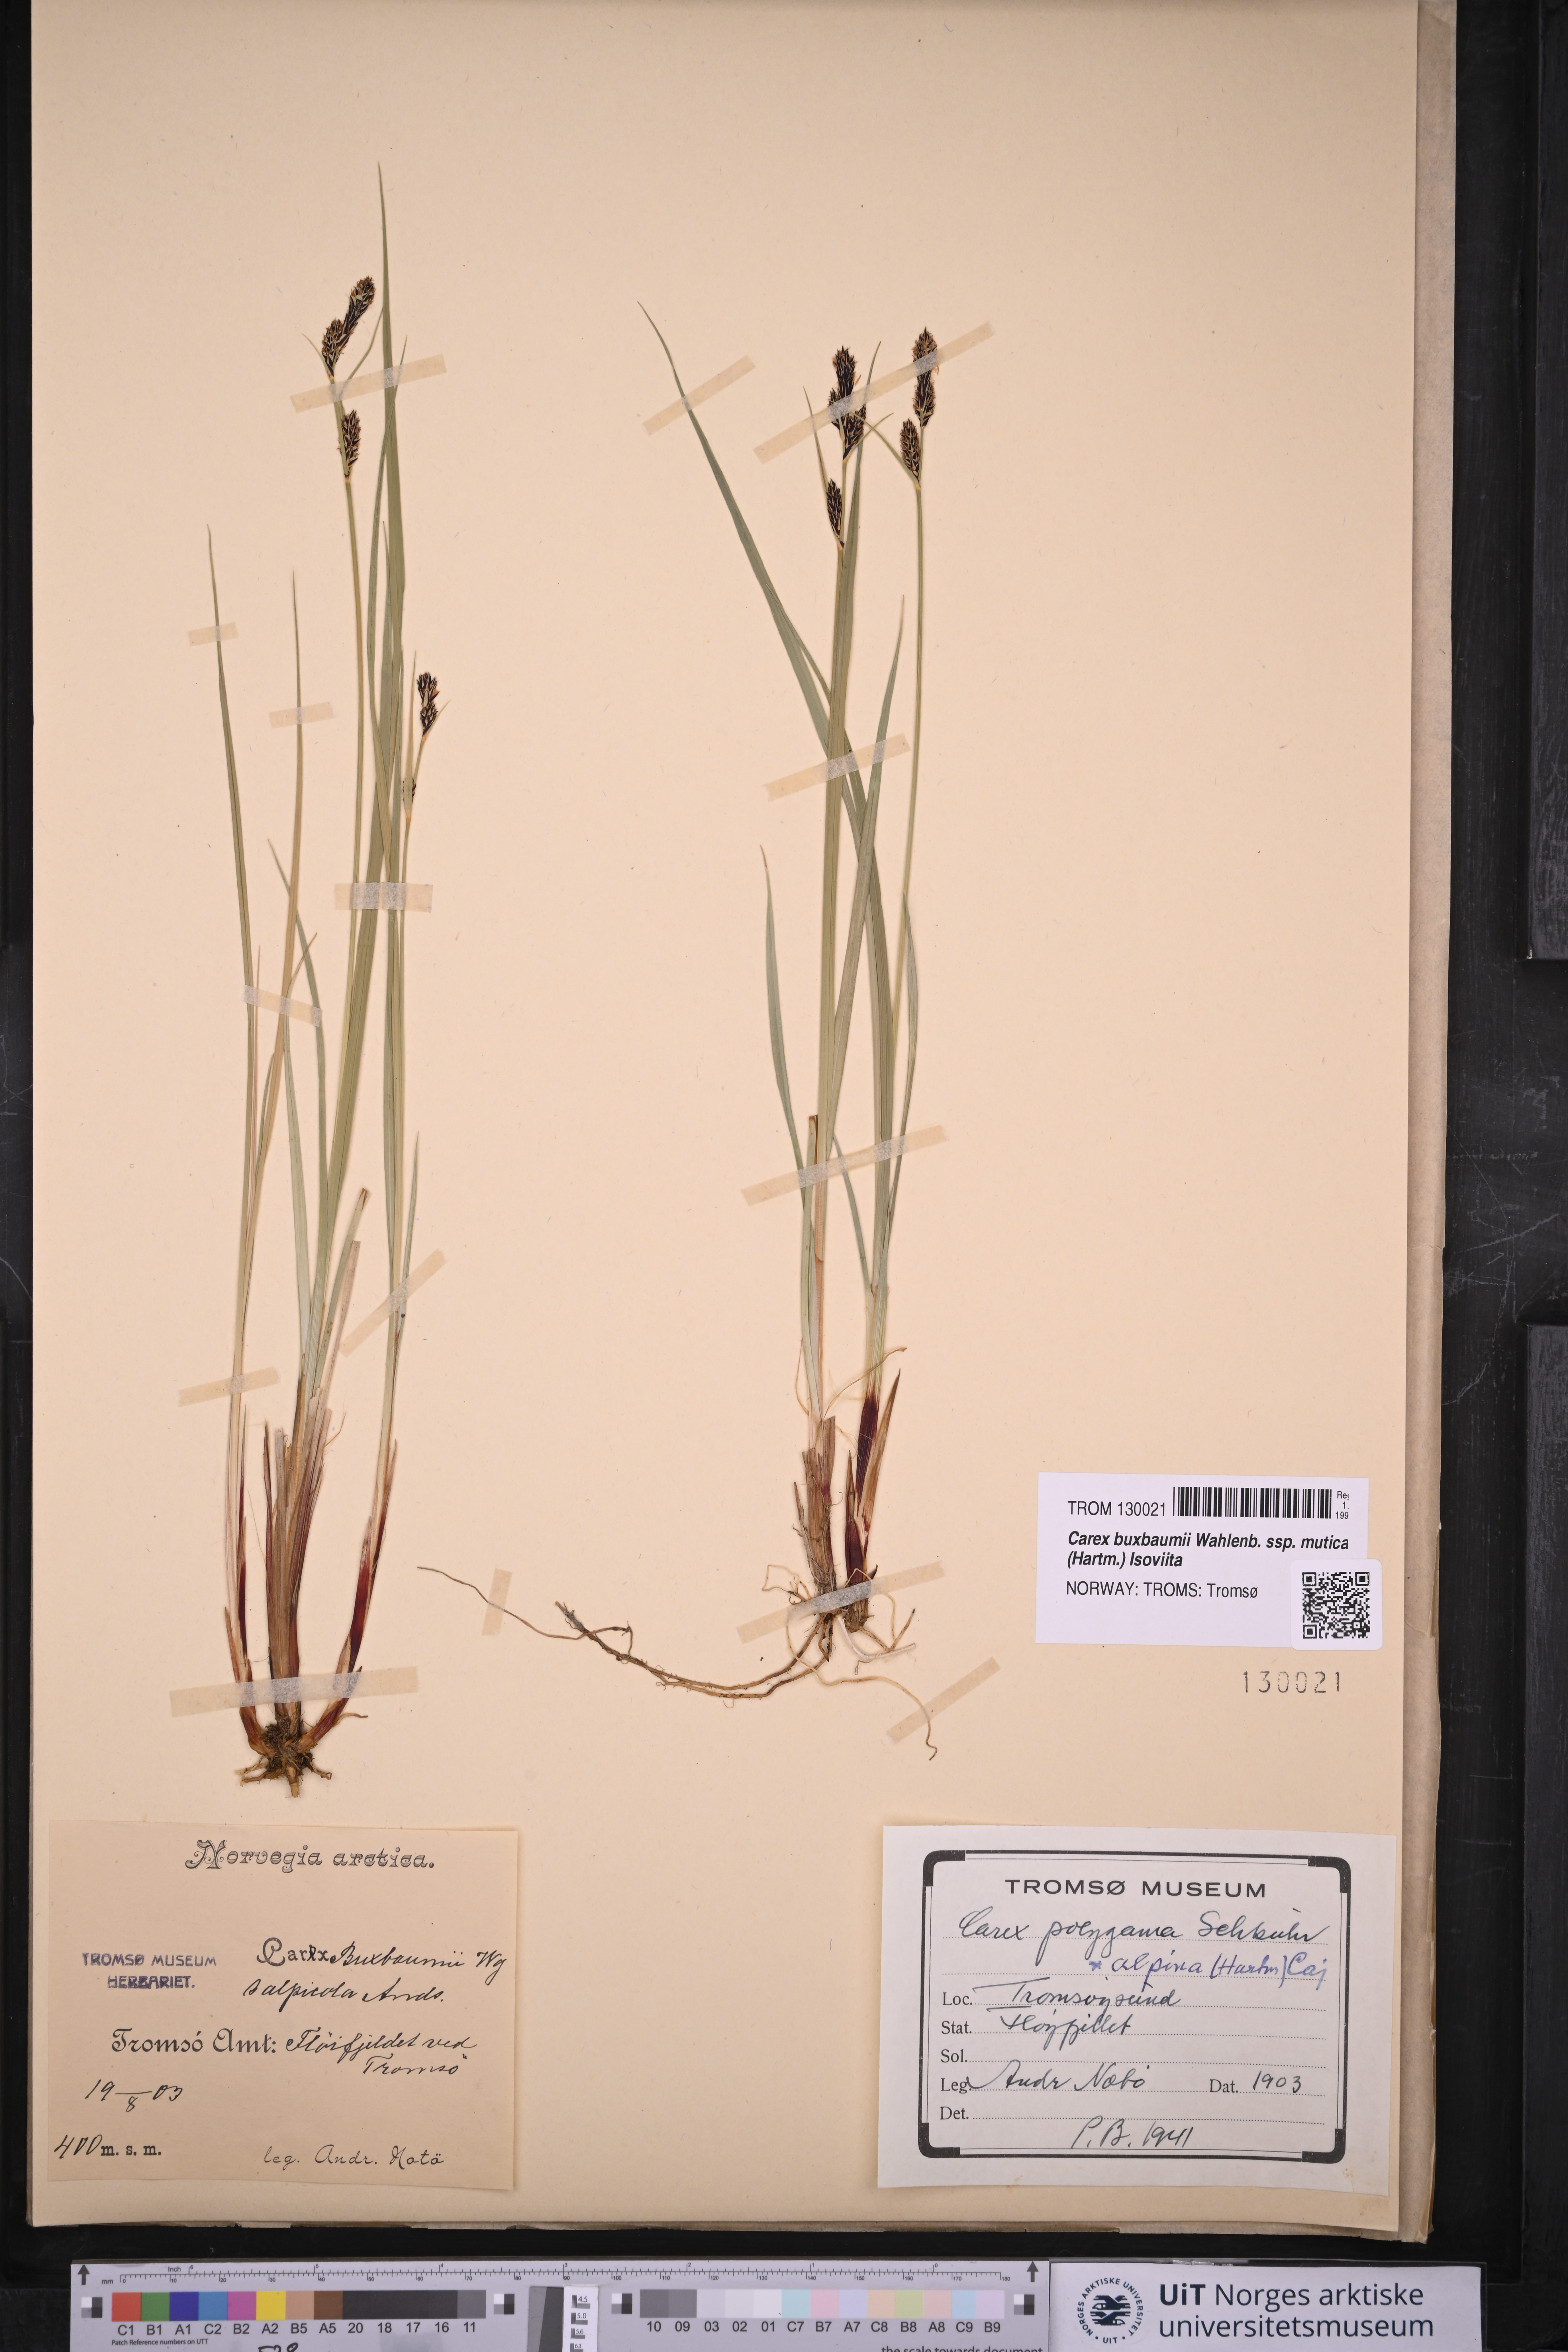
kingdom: Plantae
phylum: Tracheophyta
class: Liliopsida
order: Poales
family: Cyperaceae
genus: Carex
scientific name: Carex adelostoma
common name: Circumpolar sedge
